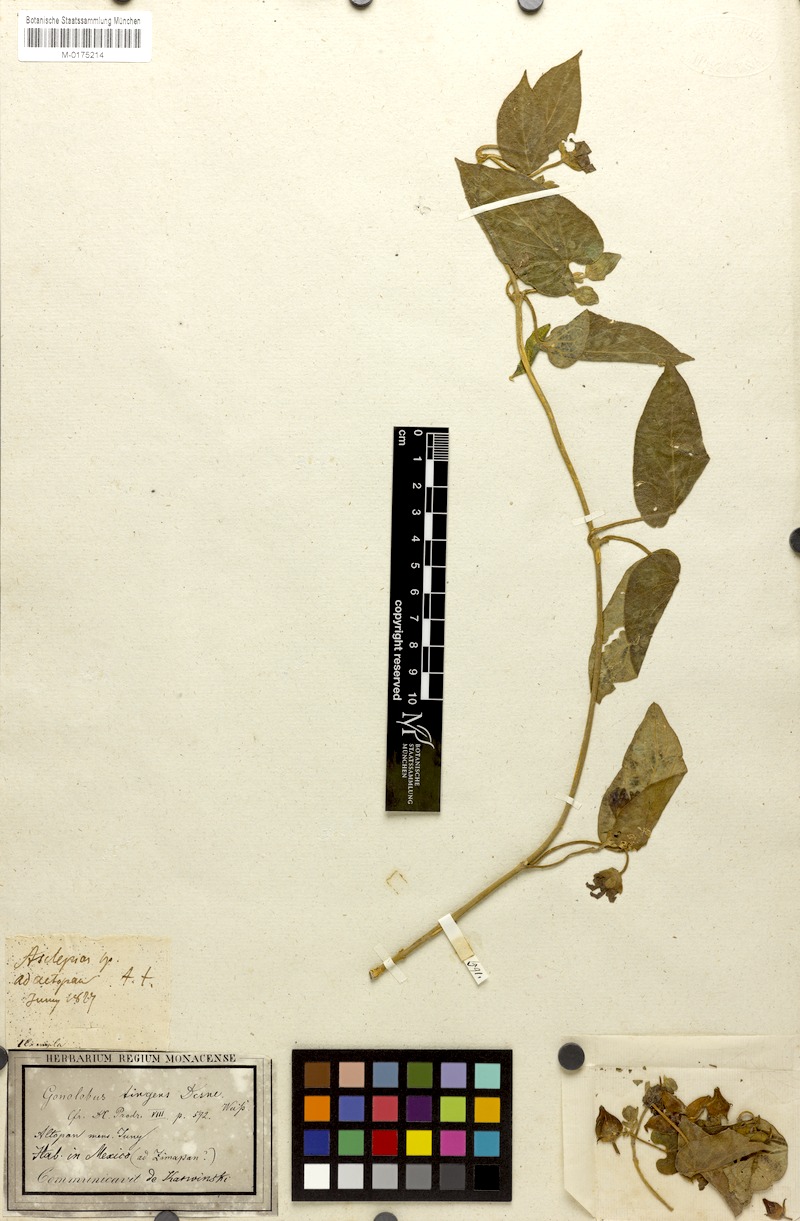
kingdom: Plantae
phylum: Tracheophyta
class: Magnoliopsida
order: Gentianales
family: Apocynaceae
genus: Gonolobus
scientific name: Gonolobus tingens
